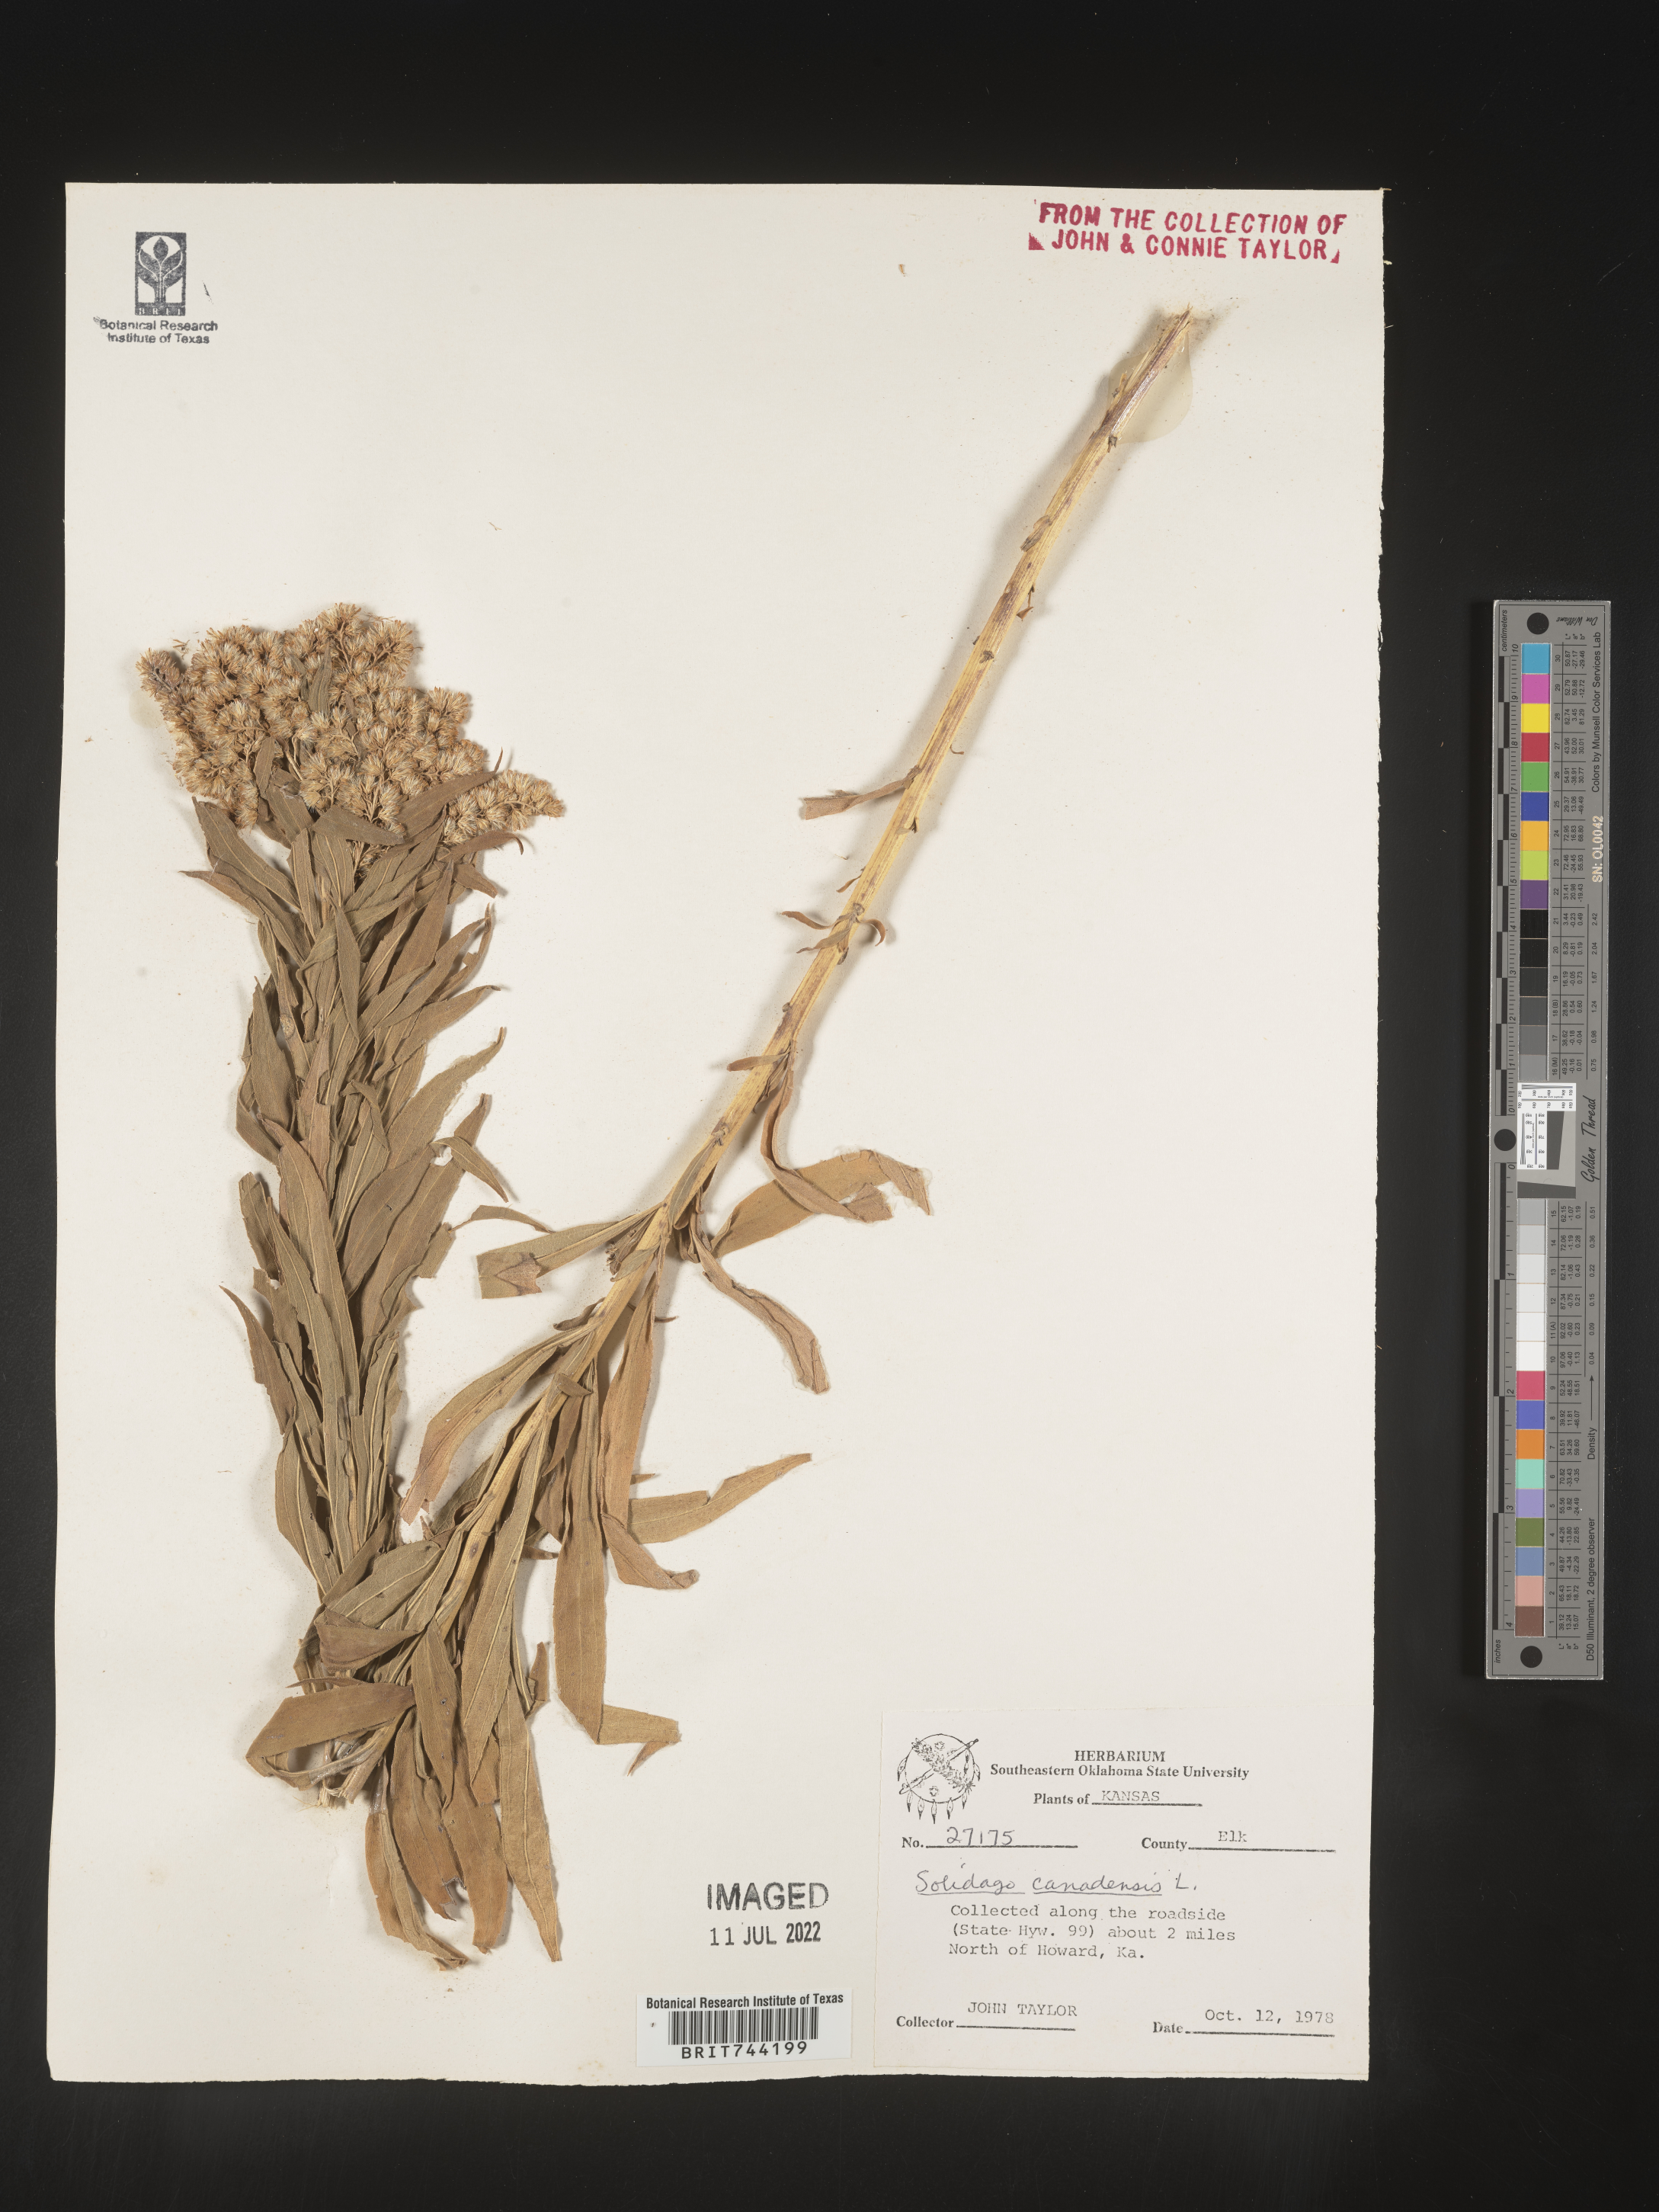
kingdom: Plantae
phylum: Tracheophyta
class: Magnoliopsida
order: Asterales
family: Asteraceae
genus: Solidago
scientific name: Solidago altissima
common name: Late goldenrod
